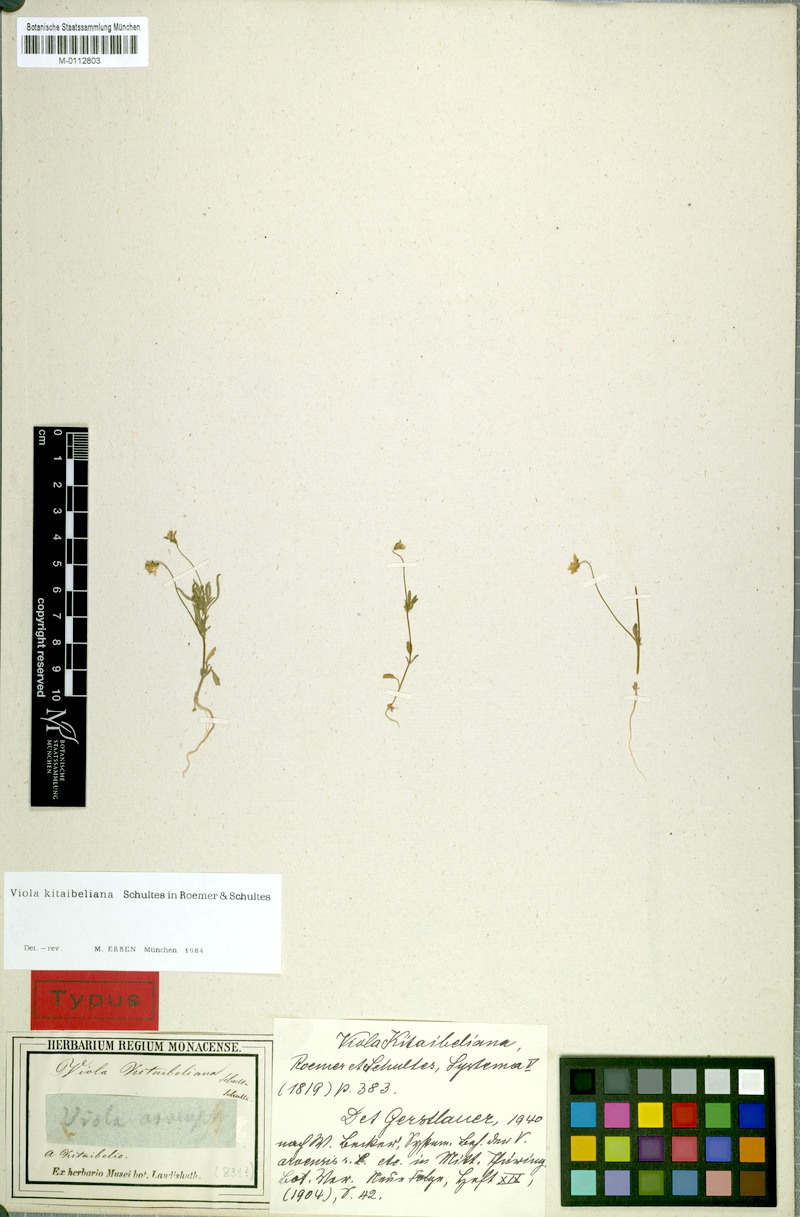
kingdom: Plantae
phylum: Tracheophyta
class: Magnoliopsida
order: Malpighiales
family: Violaceae
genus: Viola
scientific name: Viola kitaibeliana
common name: Dwarf pansy
